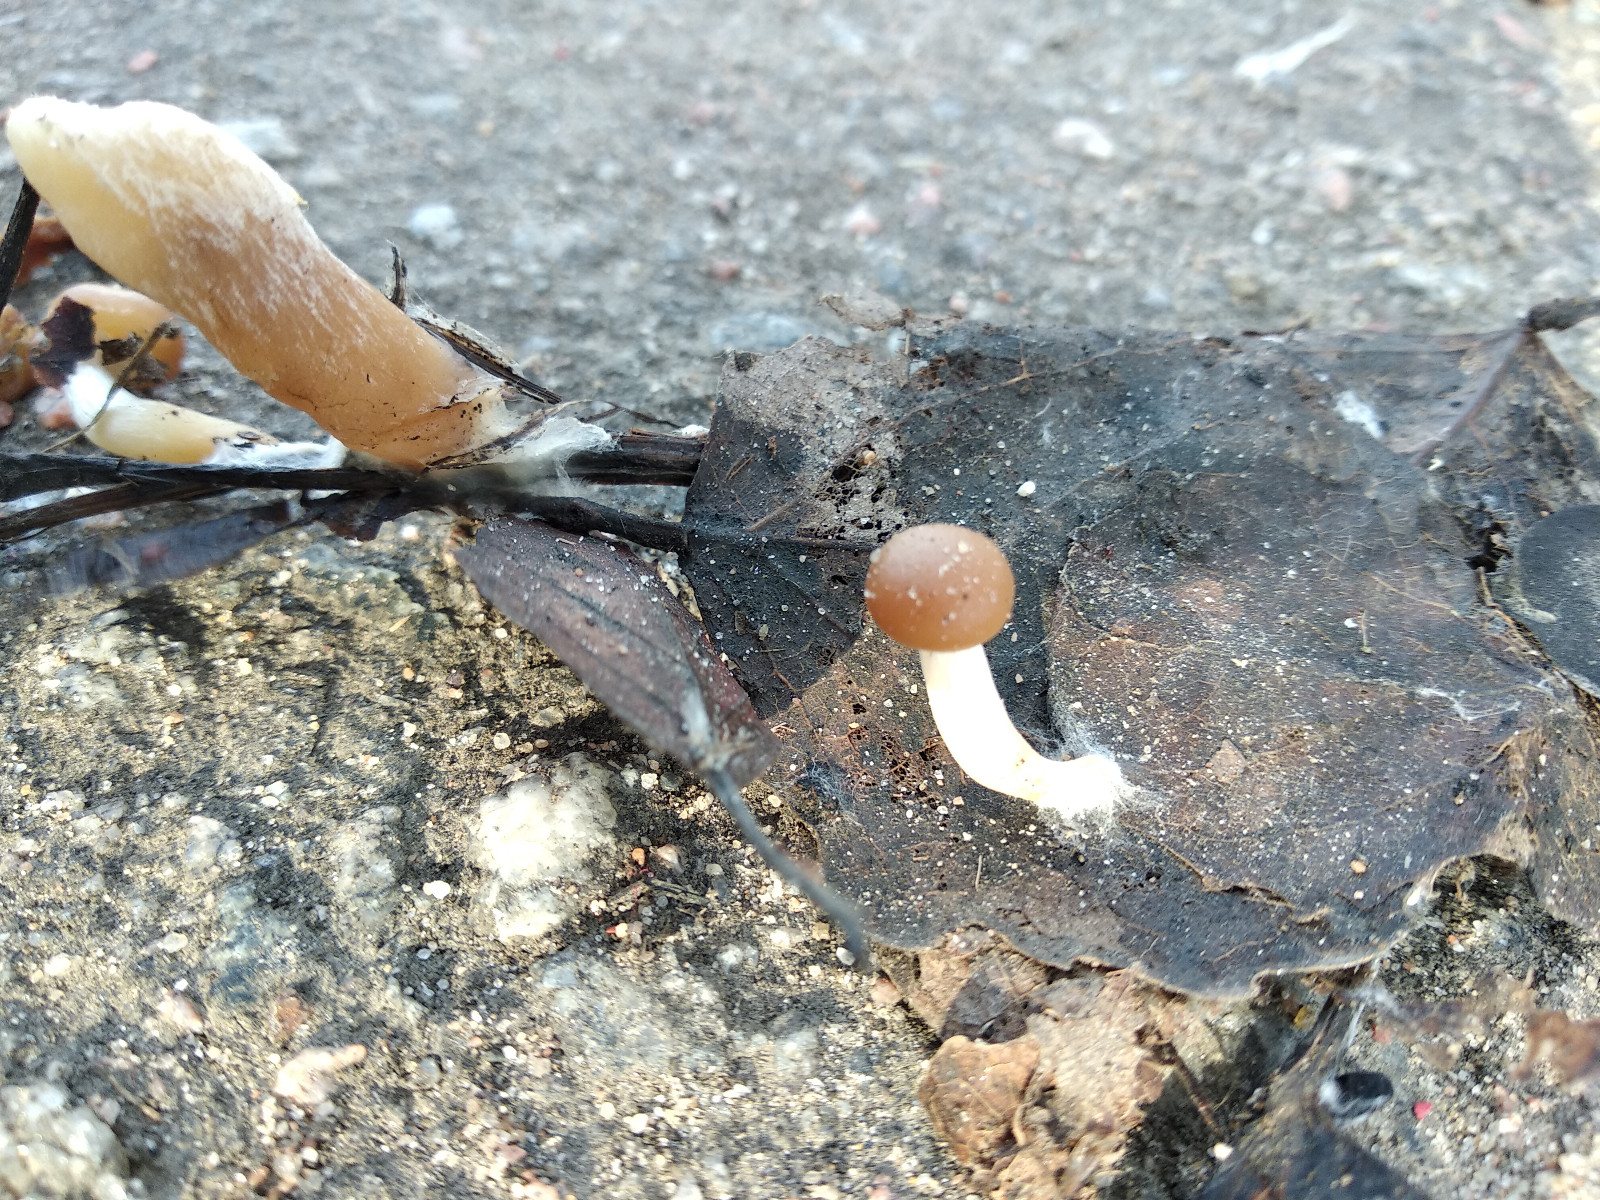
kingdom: Fungi
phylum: Basidiomycota
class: Agaricomycetes
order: Agaricales
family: Strophariaceae
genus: Meottomyces
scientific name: Meottomyces dissimulans
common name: smudsigbrun vinterskælhat
